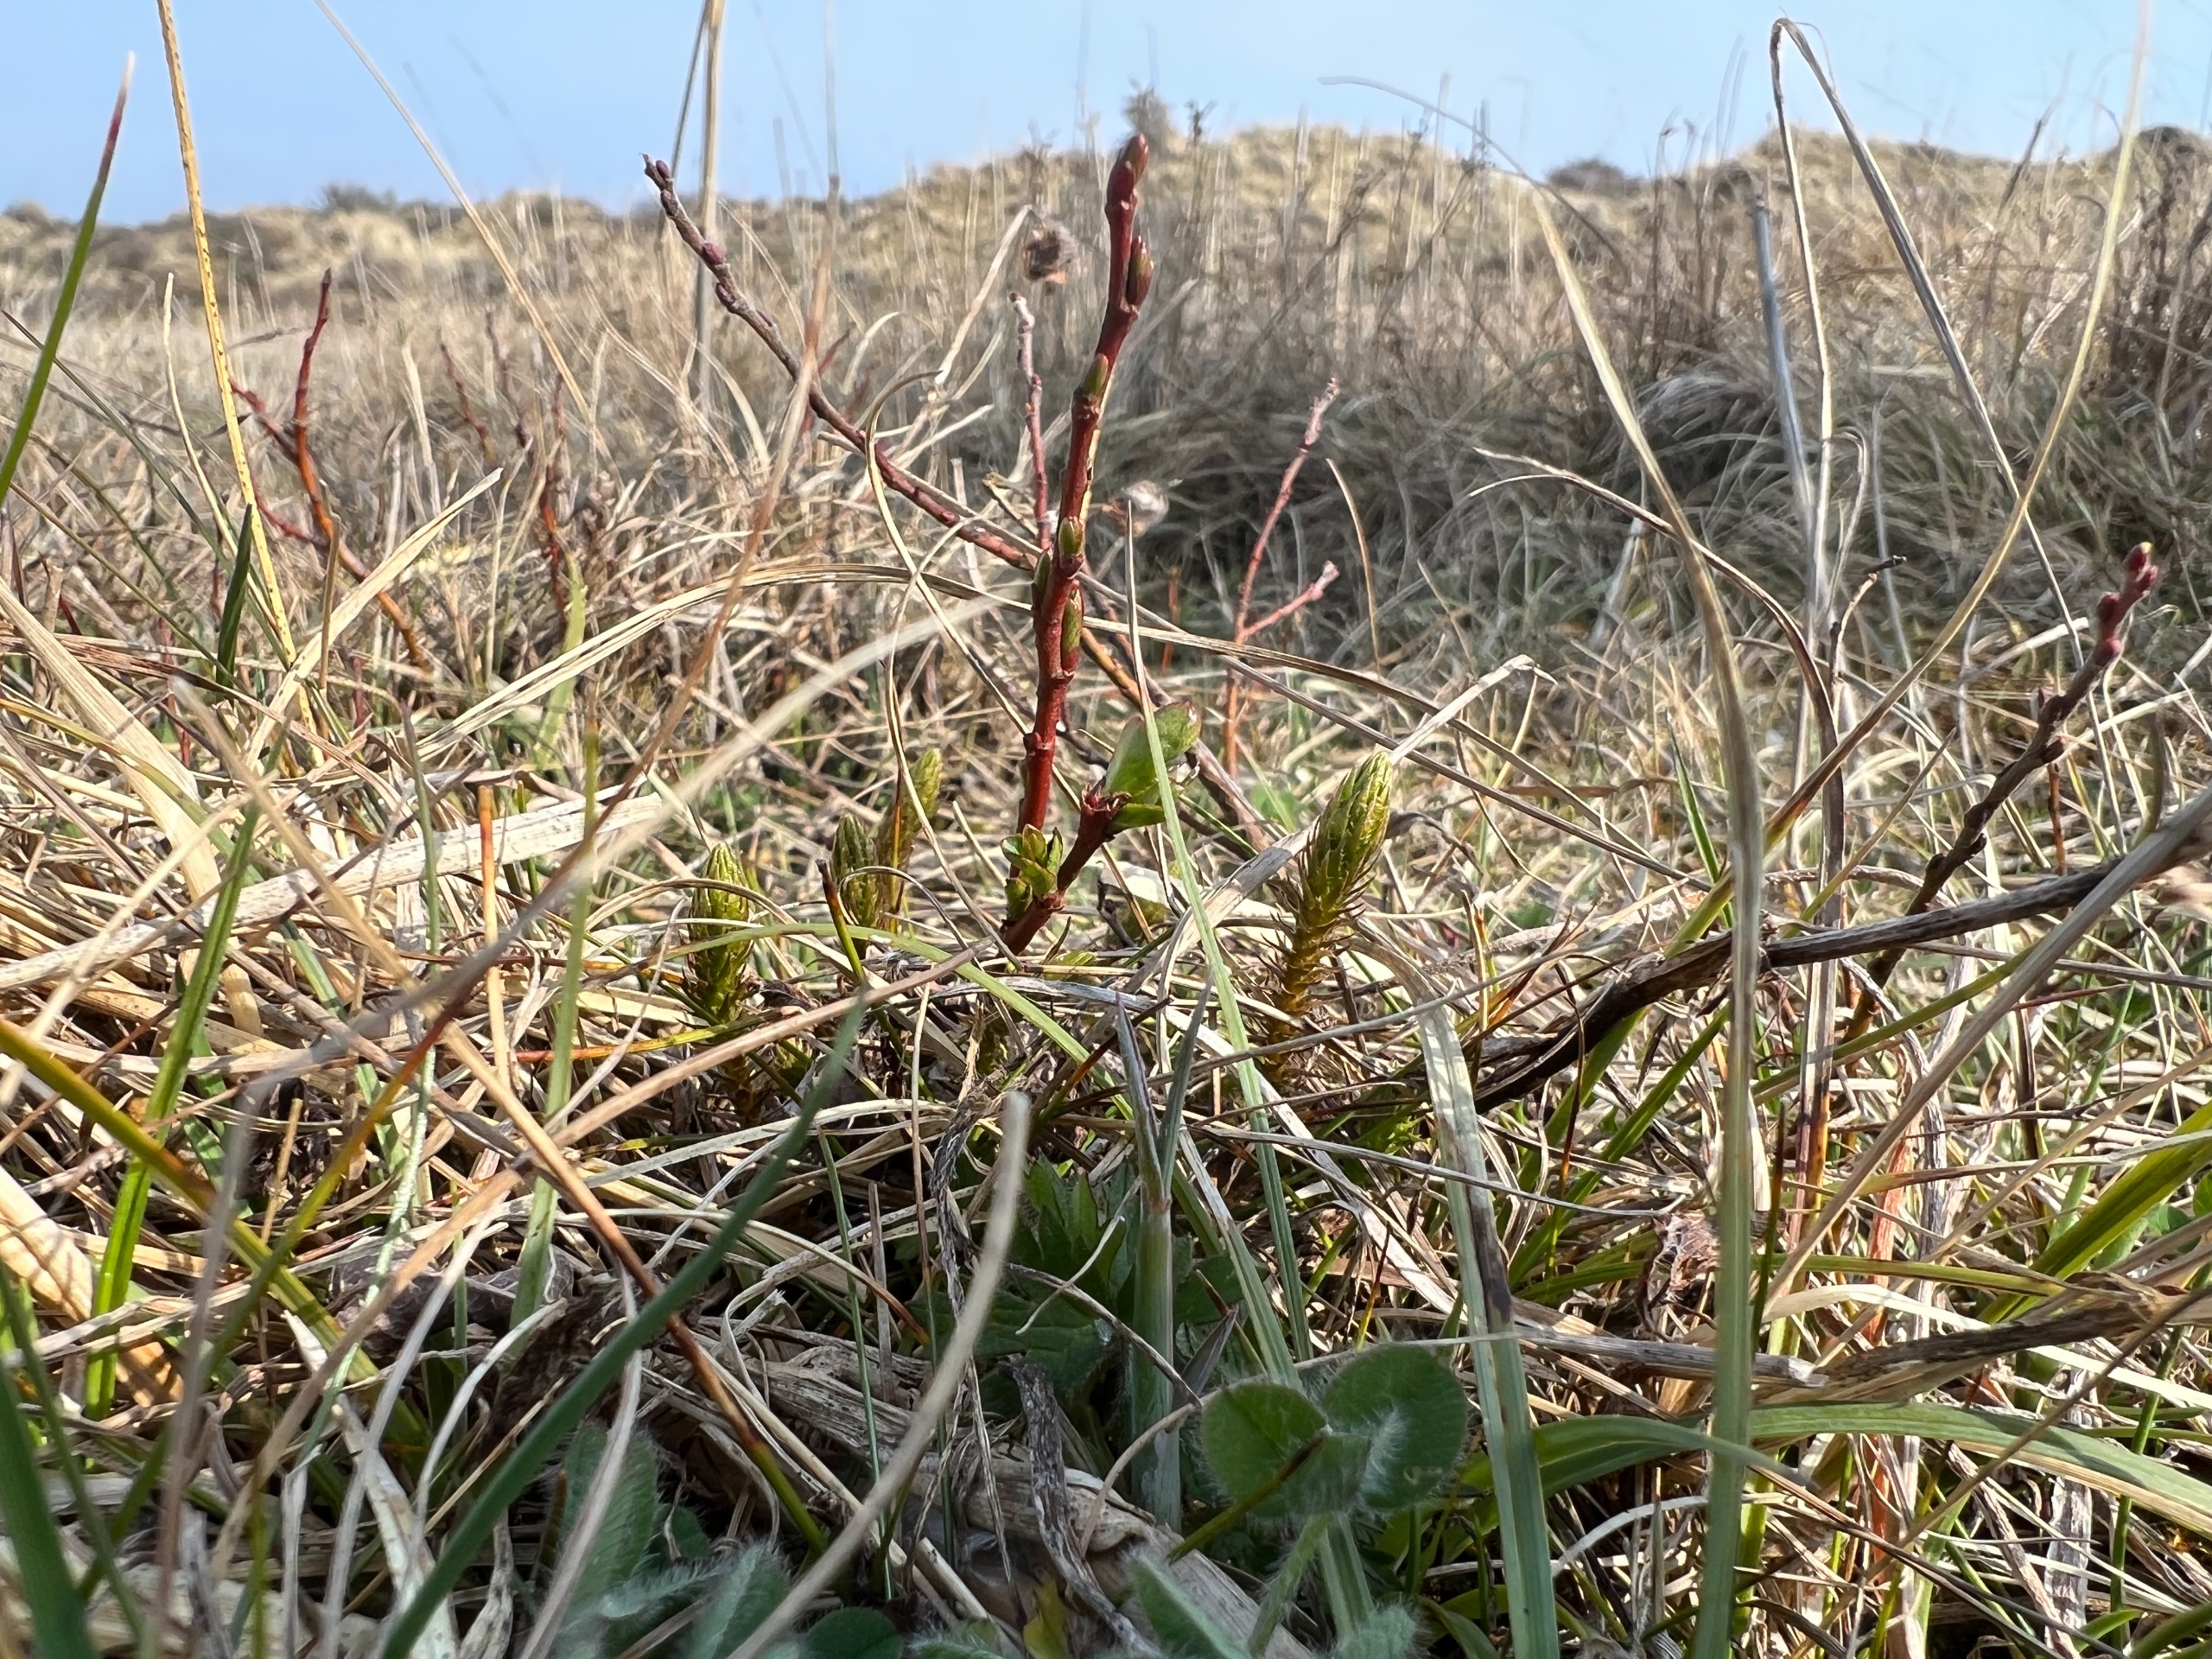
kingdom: Plantae
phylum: Tracheophyta
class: Lycopodiopsida
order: Selaginellales
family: Selaginellaceae
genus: Selaginella
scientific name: Selaginella selaginoides
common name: Dværgulvefod
